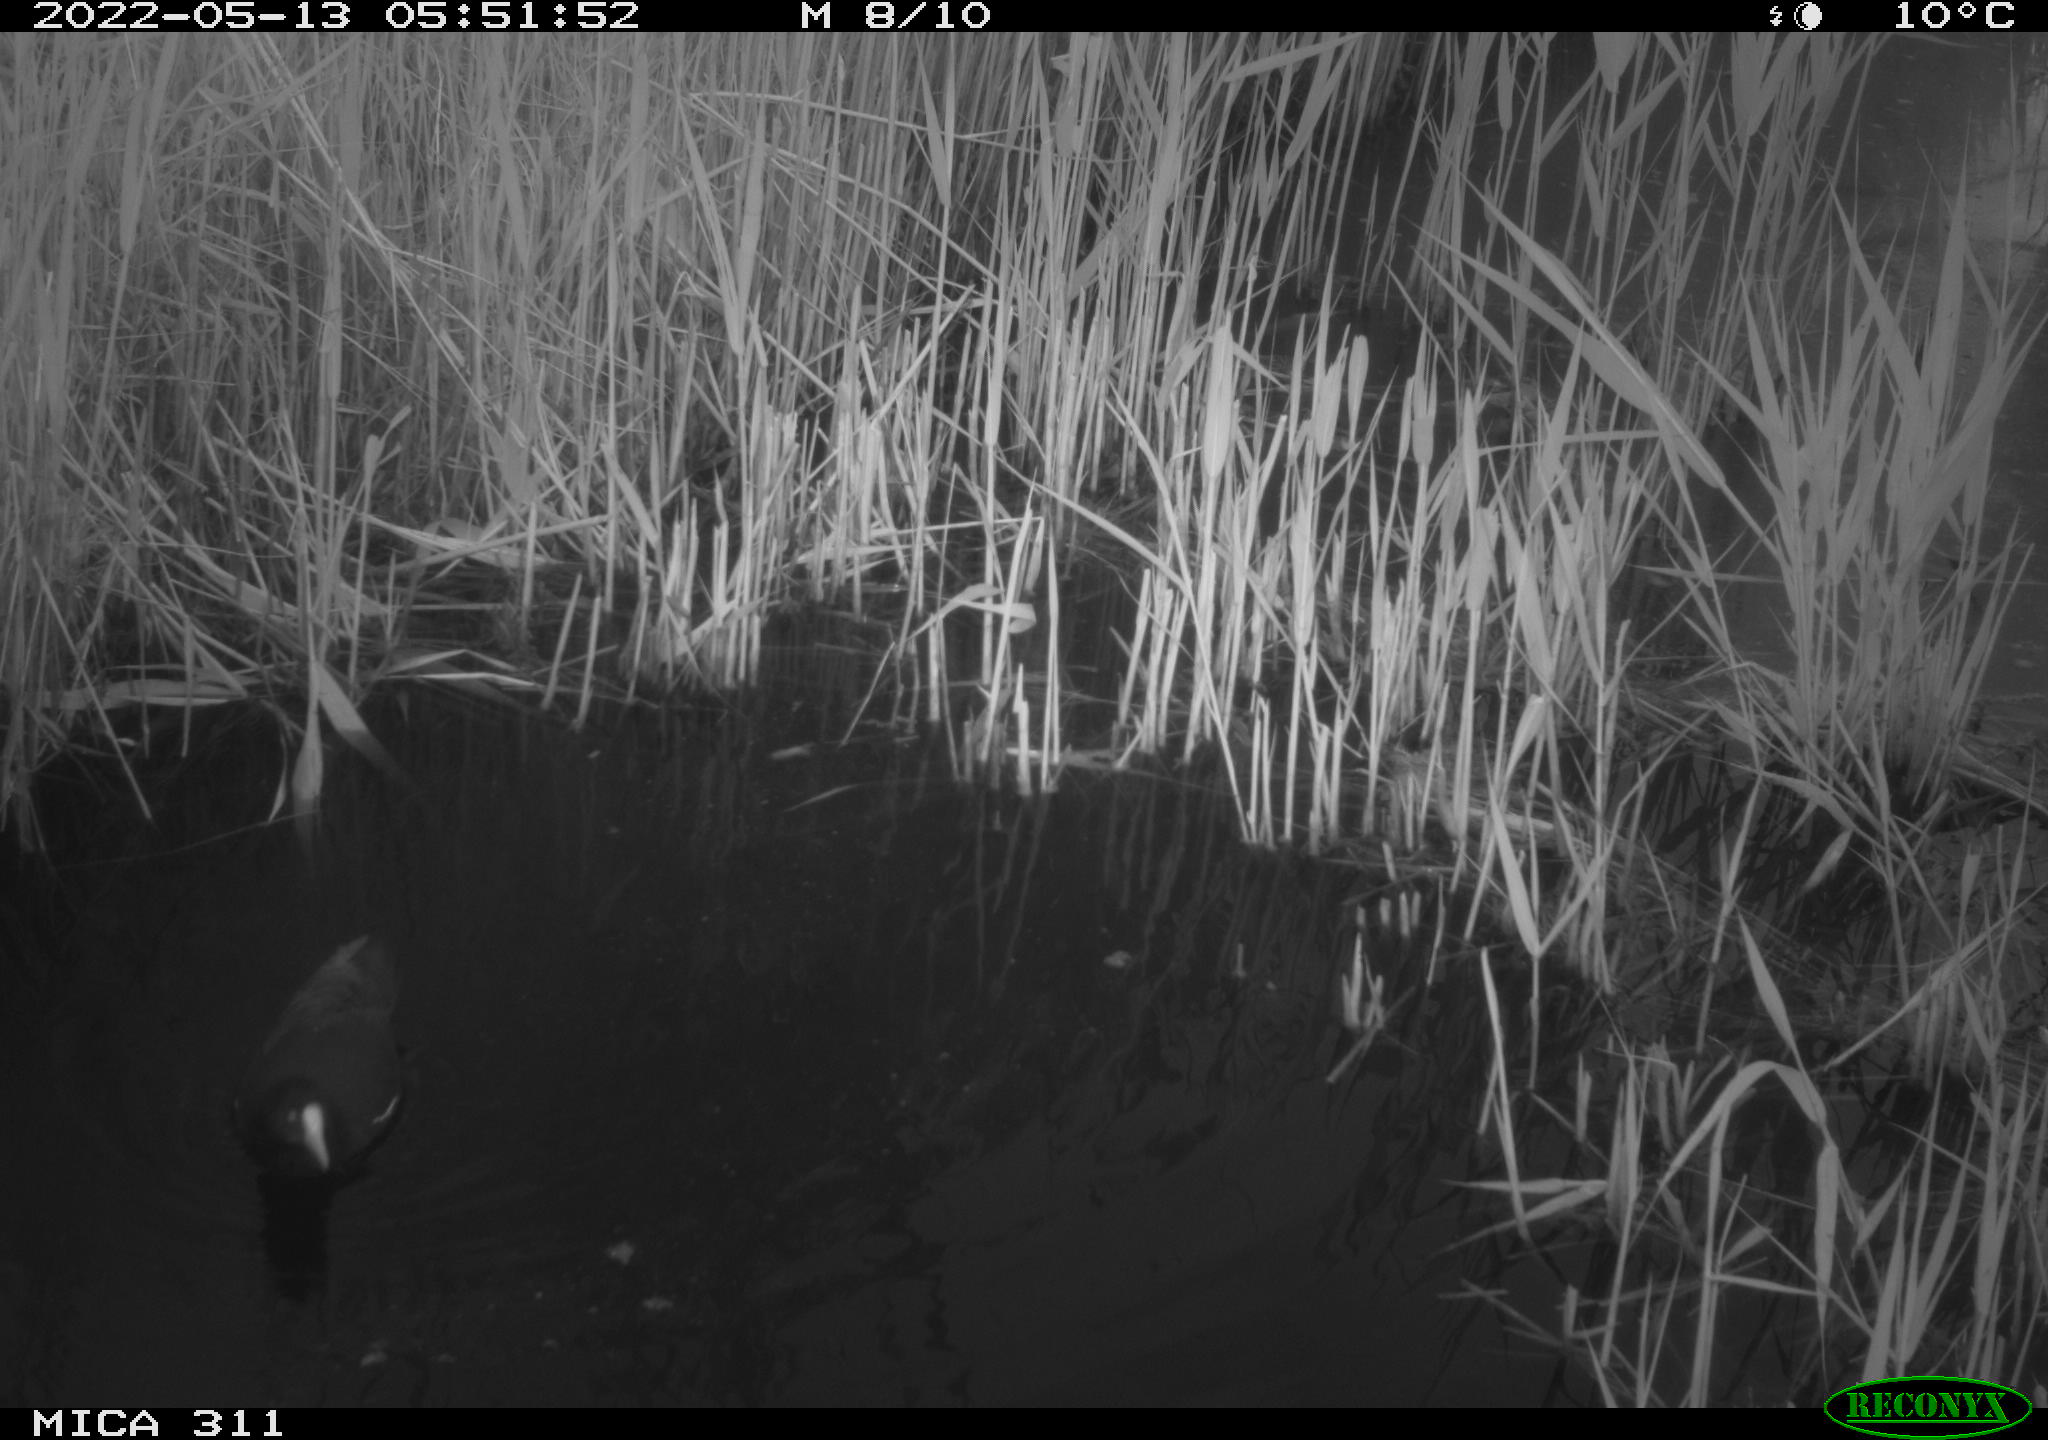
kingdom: Animalia
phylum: Chordata
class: Aves
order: Gruiformes
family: Rallidae
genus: Gallinula
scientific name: Gallinula chloropus
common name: Common moorhen
